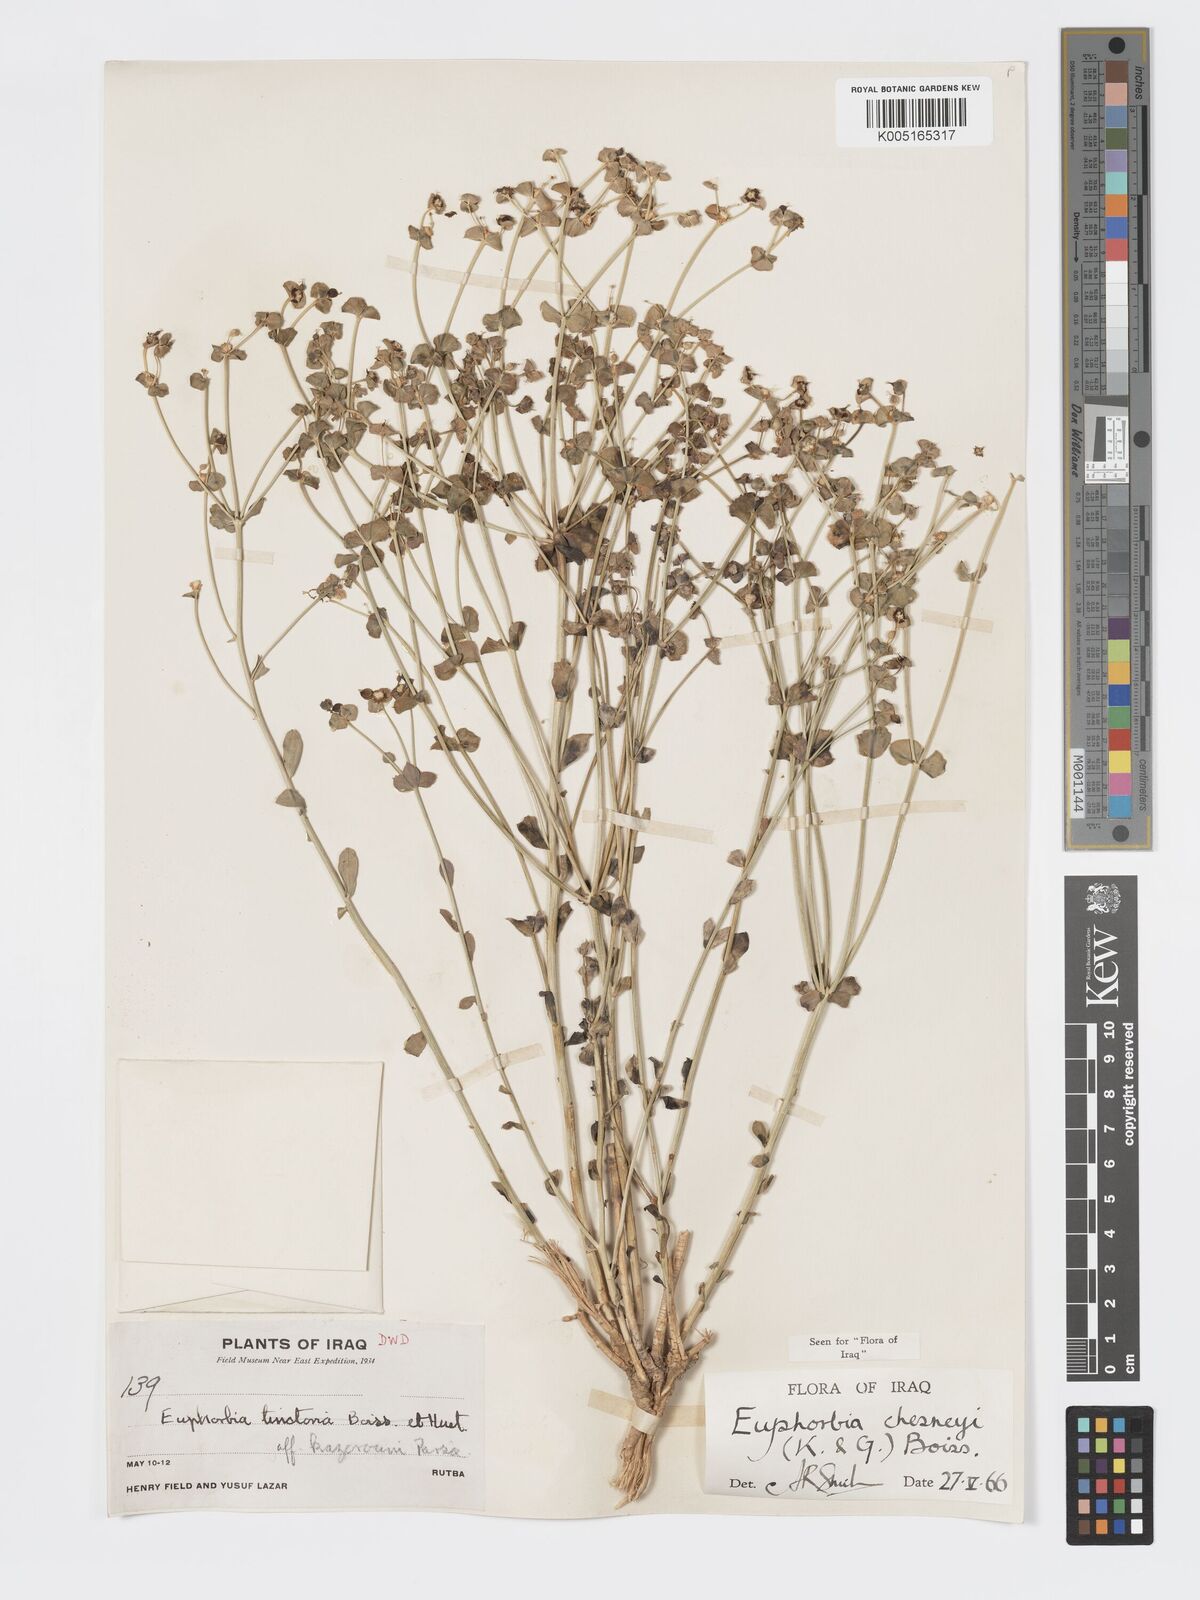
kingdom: Plantae
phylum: Tracheophyta
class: Magnoliopsida
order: Malpighiales
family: Euphorbiaceae
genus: Euphorbia
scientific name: Euphorbia cuspidata
